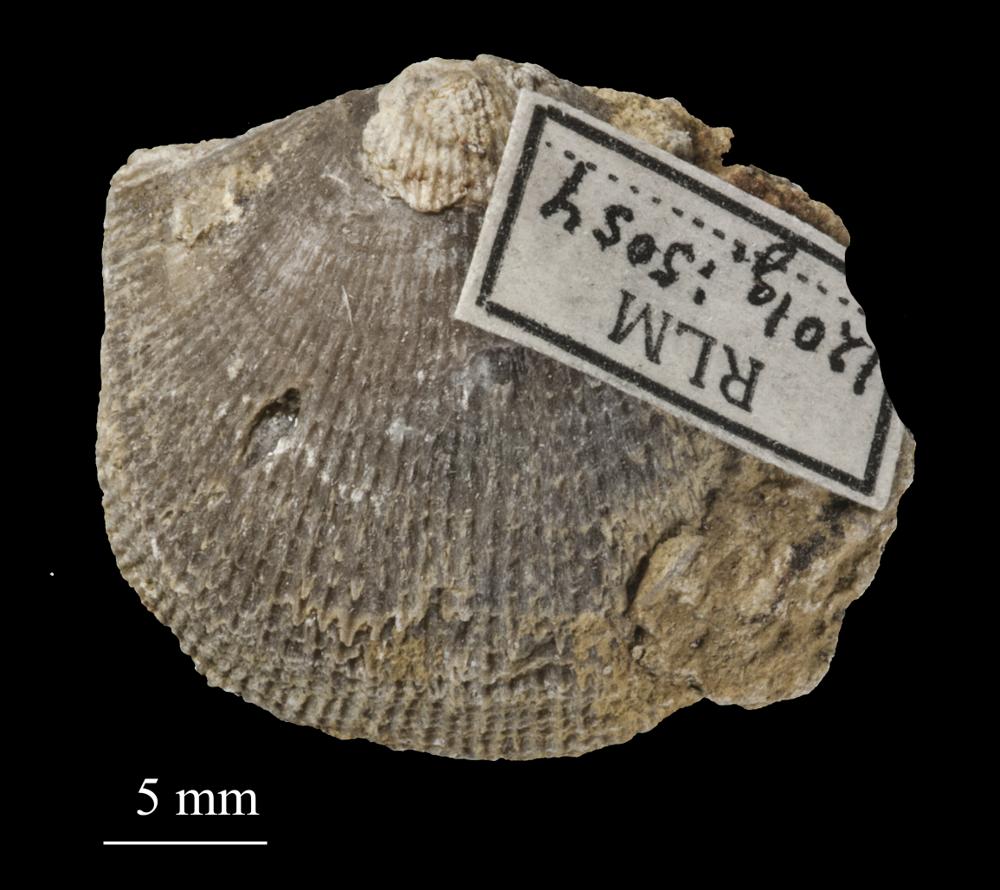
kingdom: Animalia
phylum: Brachiopoda
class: Rhynchonellata
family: Clitambonitidae
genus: Clitambonites
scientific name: Clitambonites squamatus
